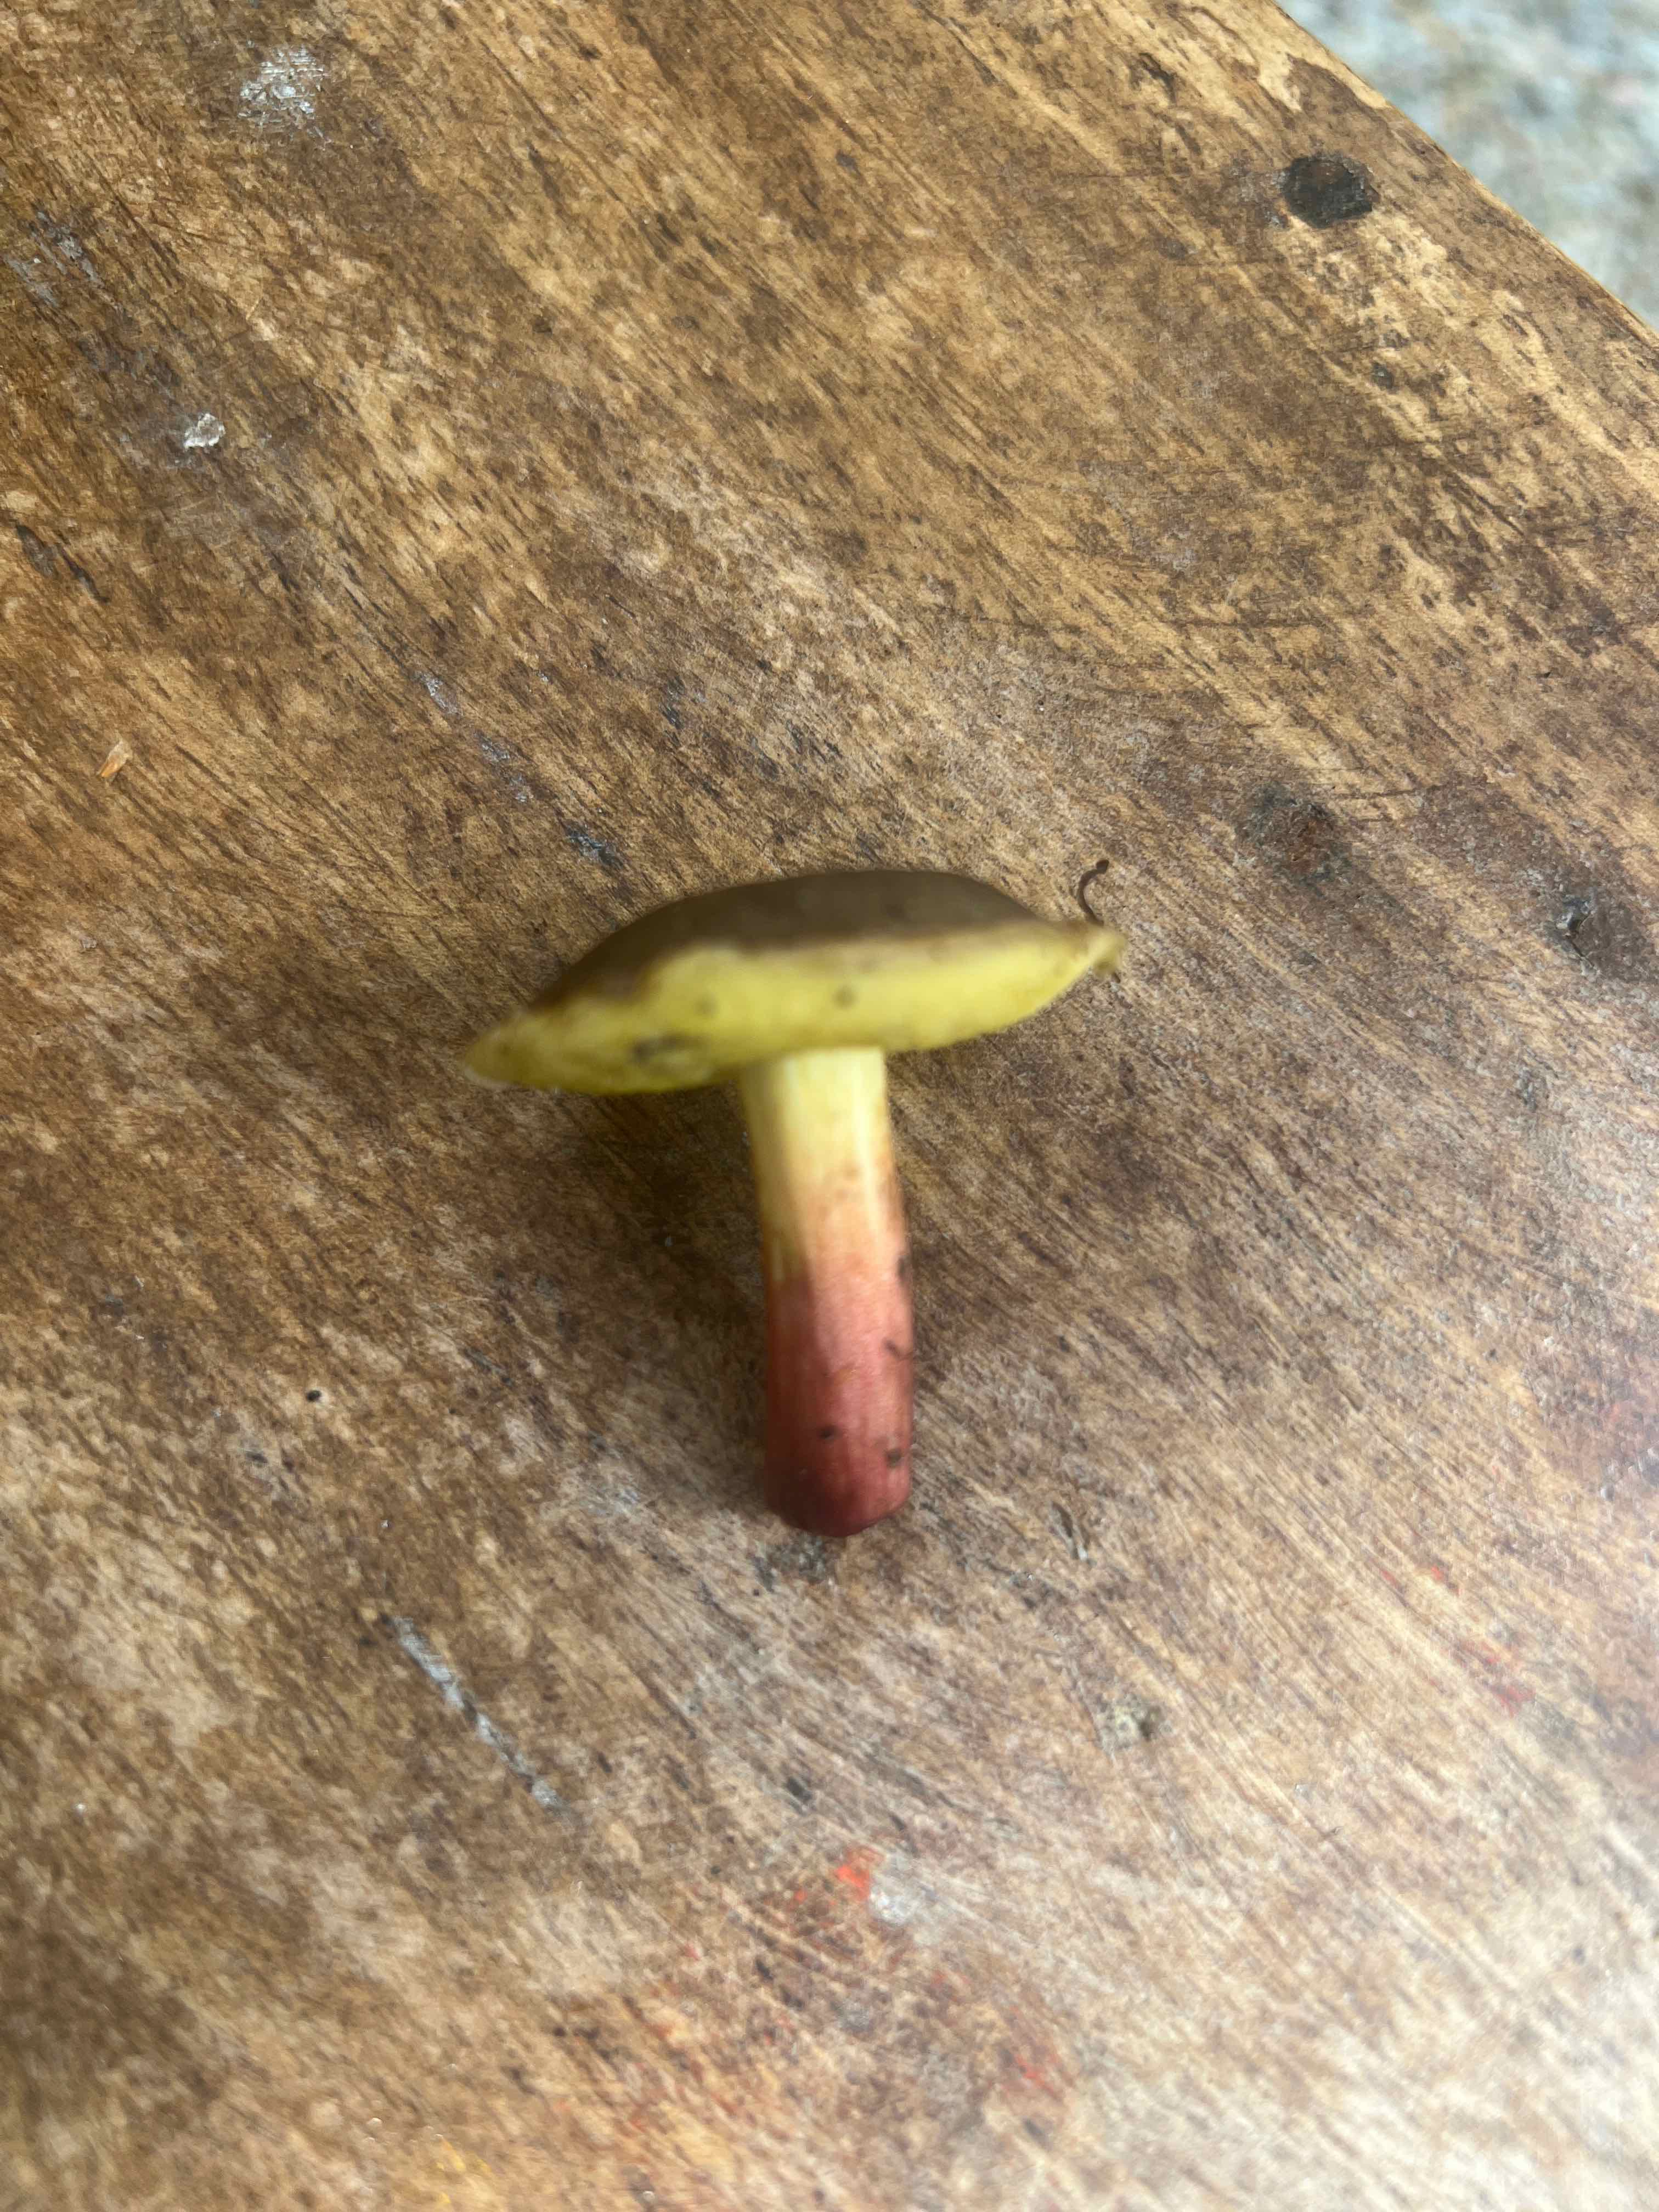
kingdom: Fungi
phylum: Basidiomycota
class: Agaricomycetes
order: Boletales
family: Boletaceae
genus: Xerocomellus
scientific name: Xerocomellus
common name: dværgrørhat
